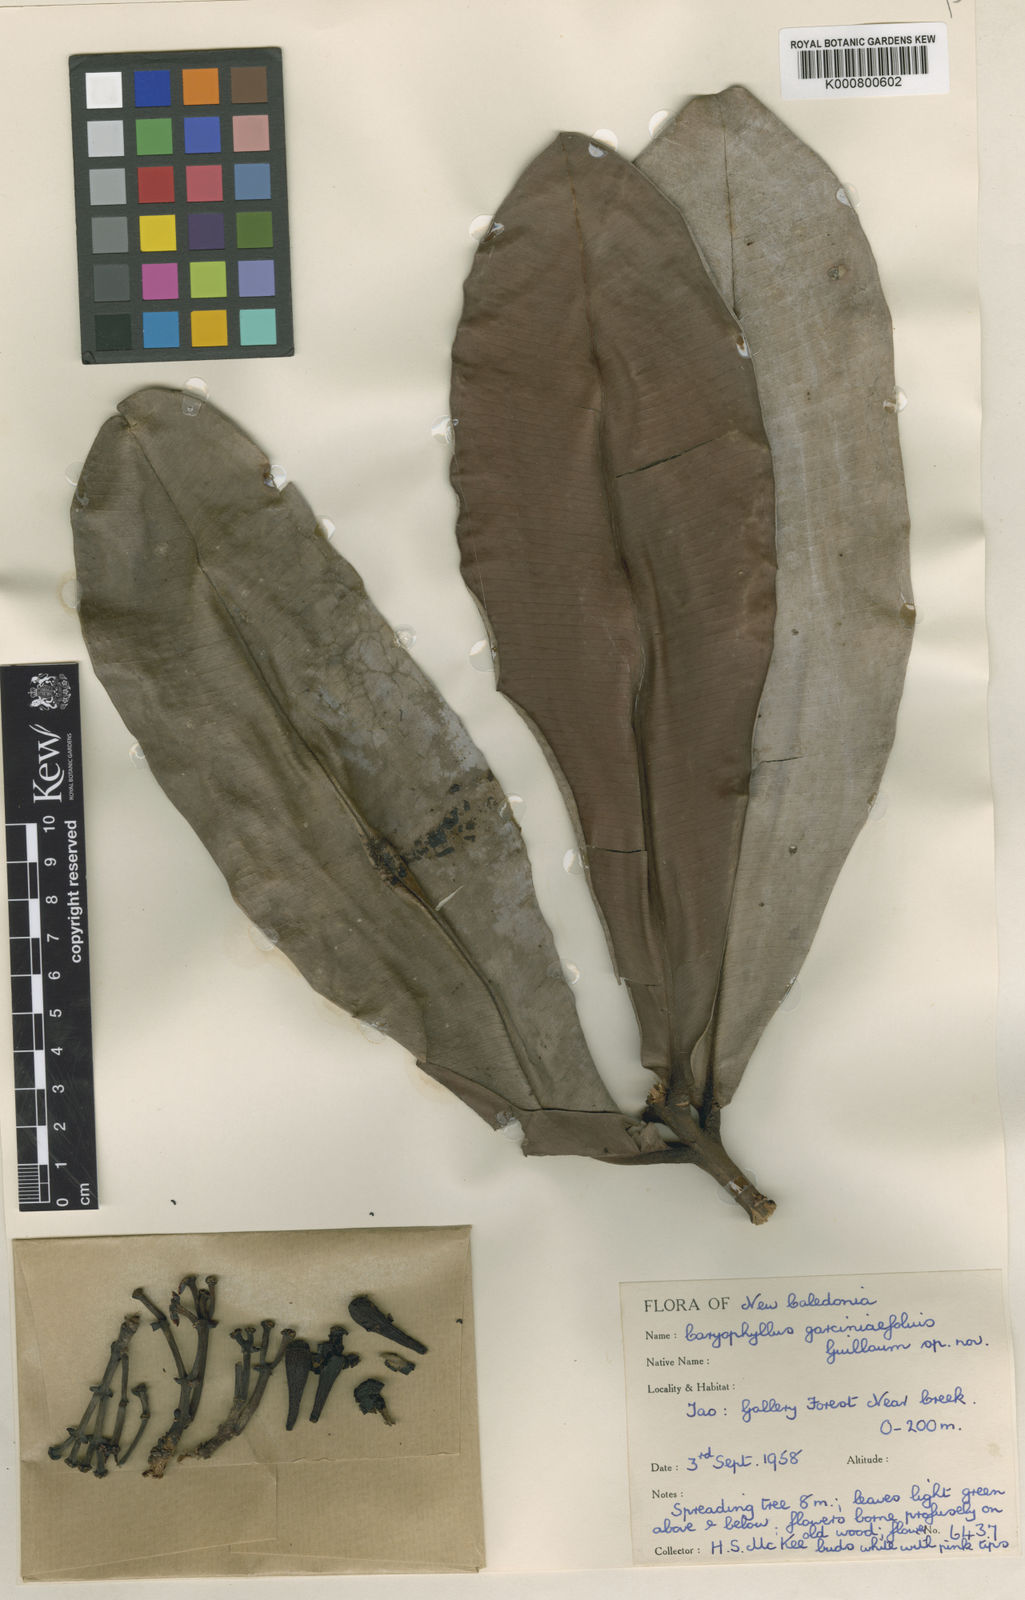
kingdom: Plantae
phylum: Tracheophyta
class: Magnoliopsida
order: Myrtales
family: Myrtaceae
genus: Syzygium
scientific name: Syzygium garciniifolium
